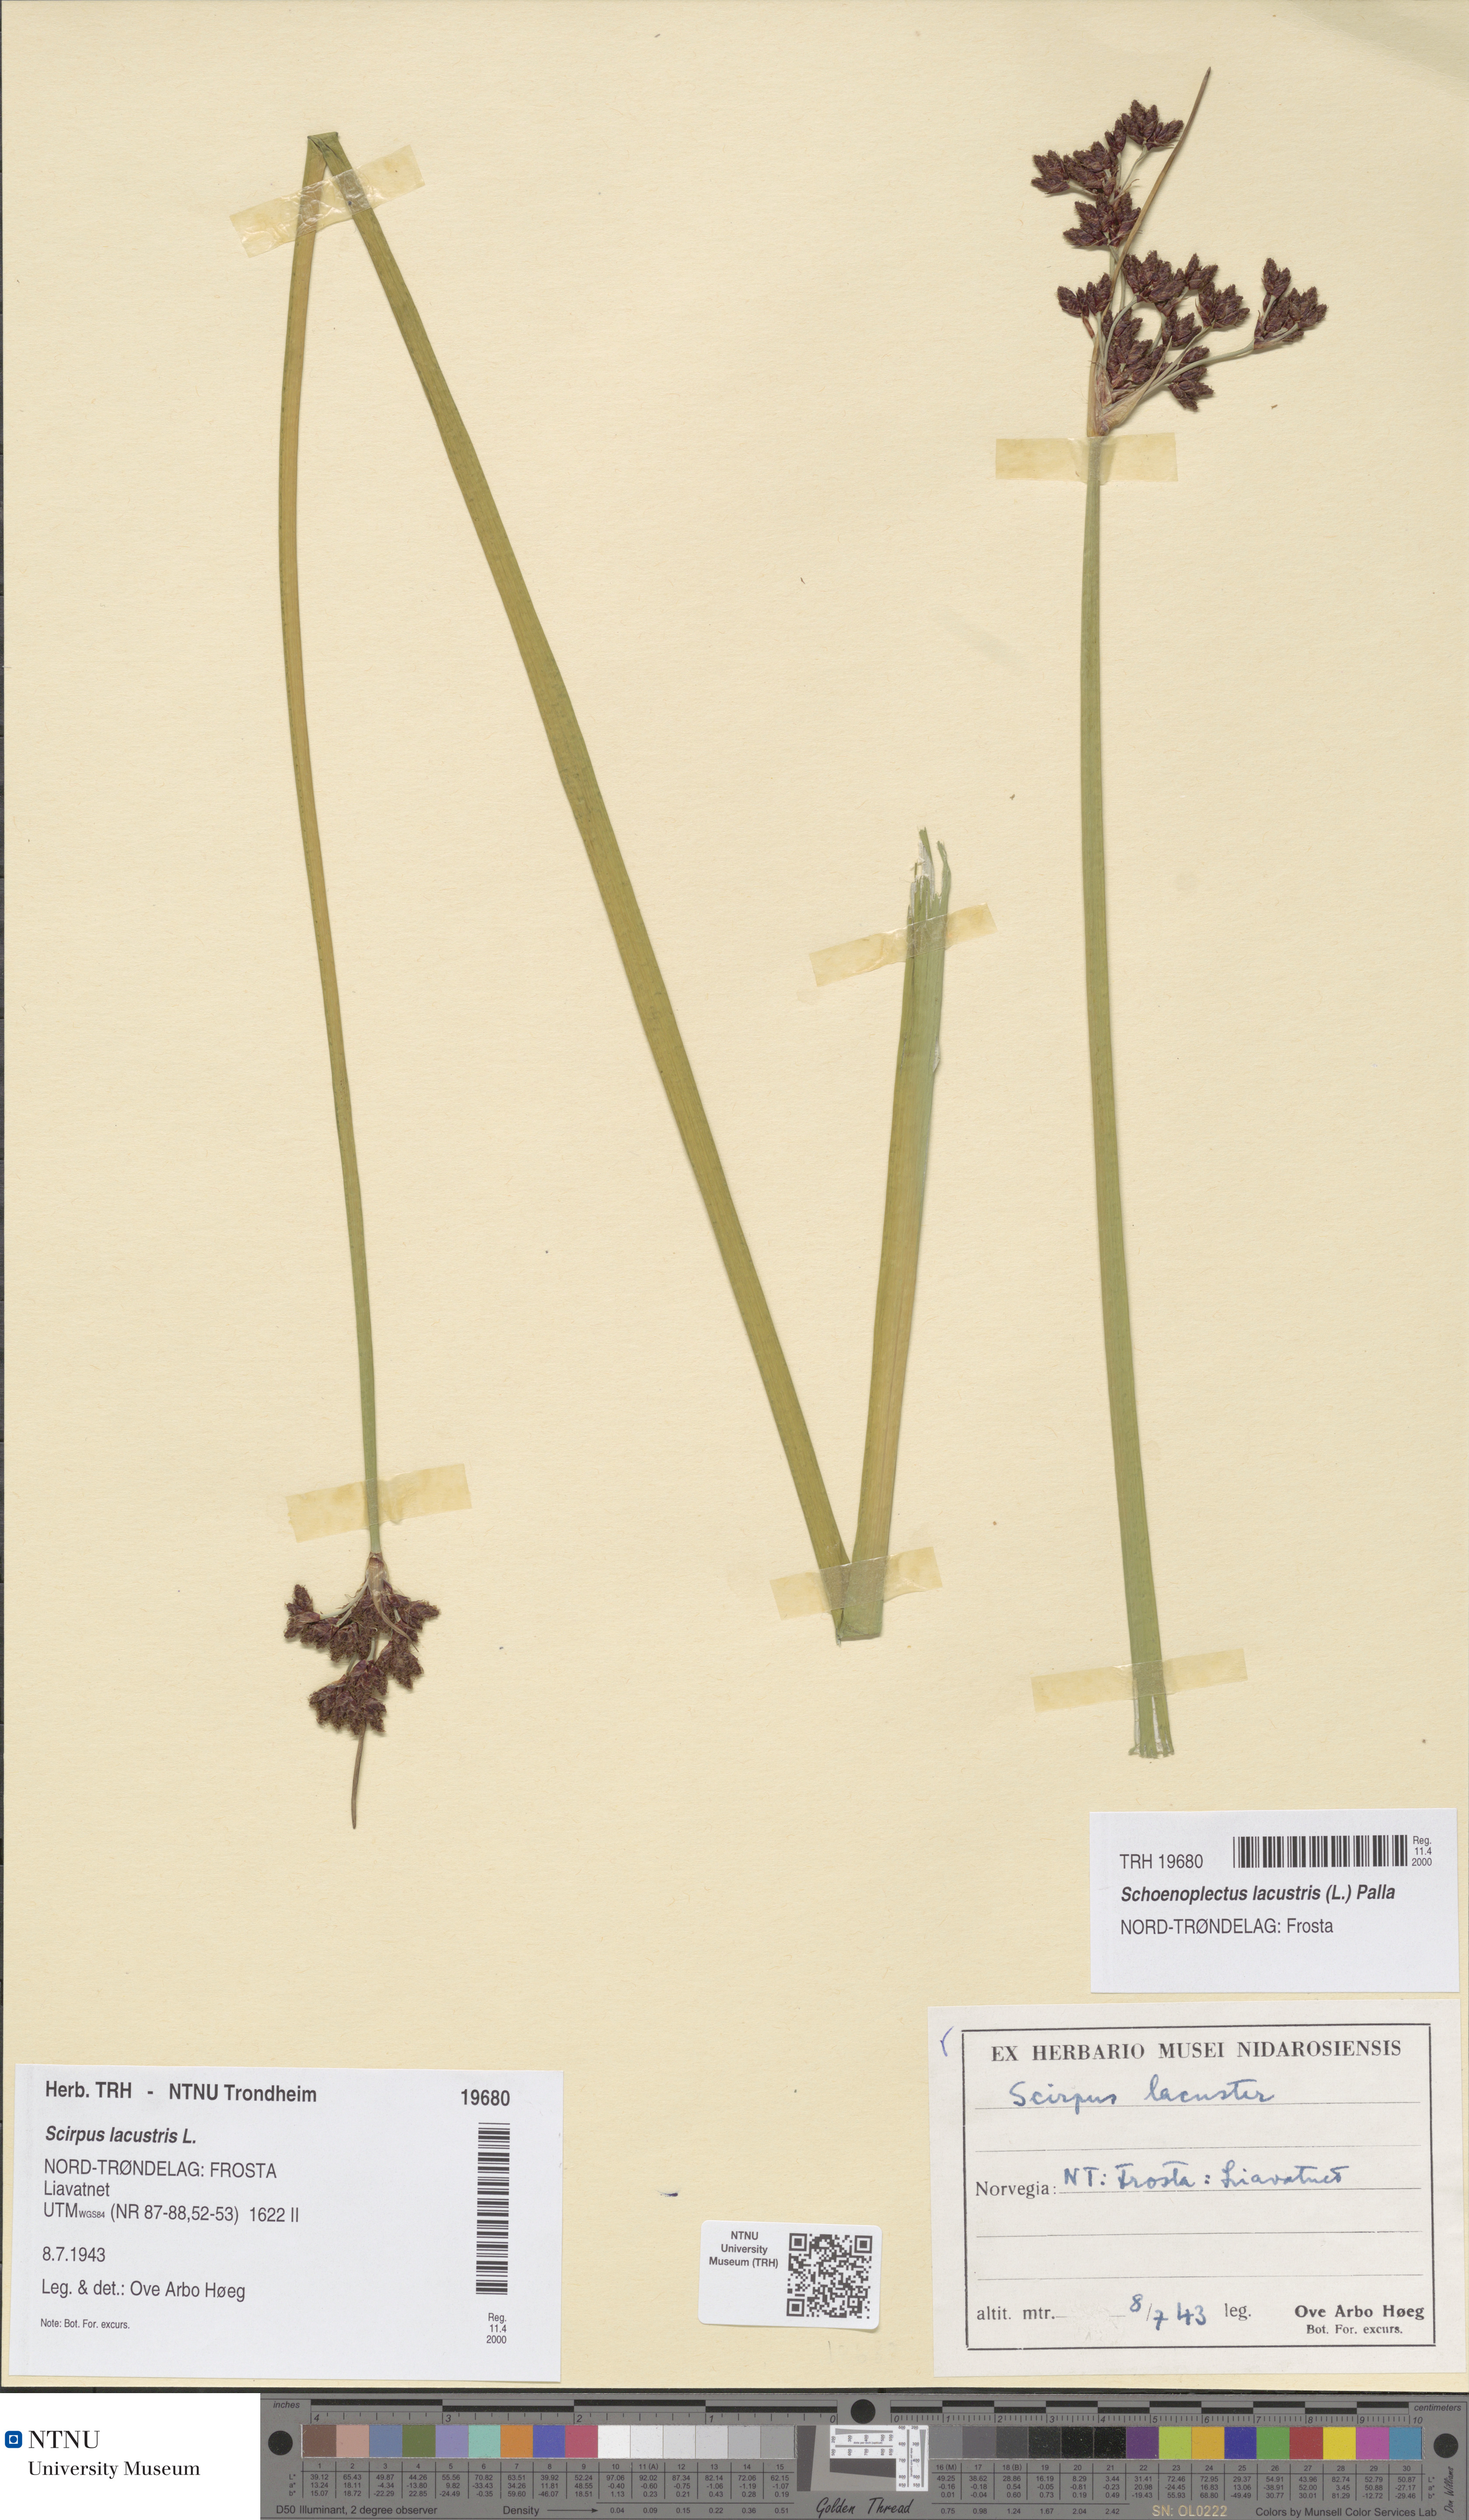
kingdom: Plantae
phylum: Tracheophyta
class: Liliopsida
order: Poales
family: Cyperaceae
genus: Schoenoplectus
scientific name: Schoenoplectus lacustris
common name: Common club-rush
